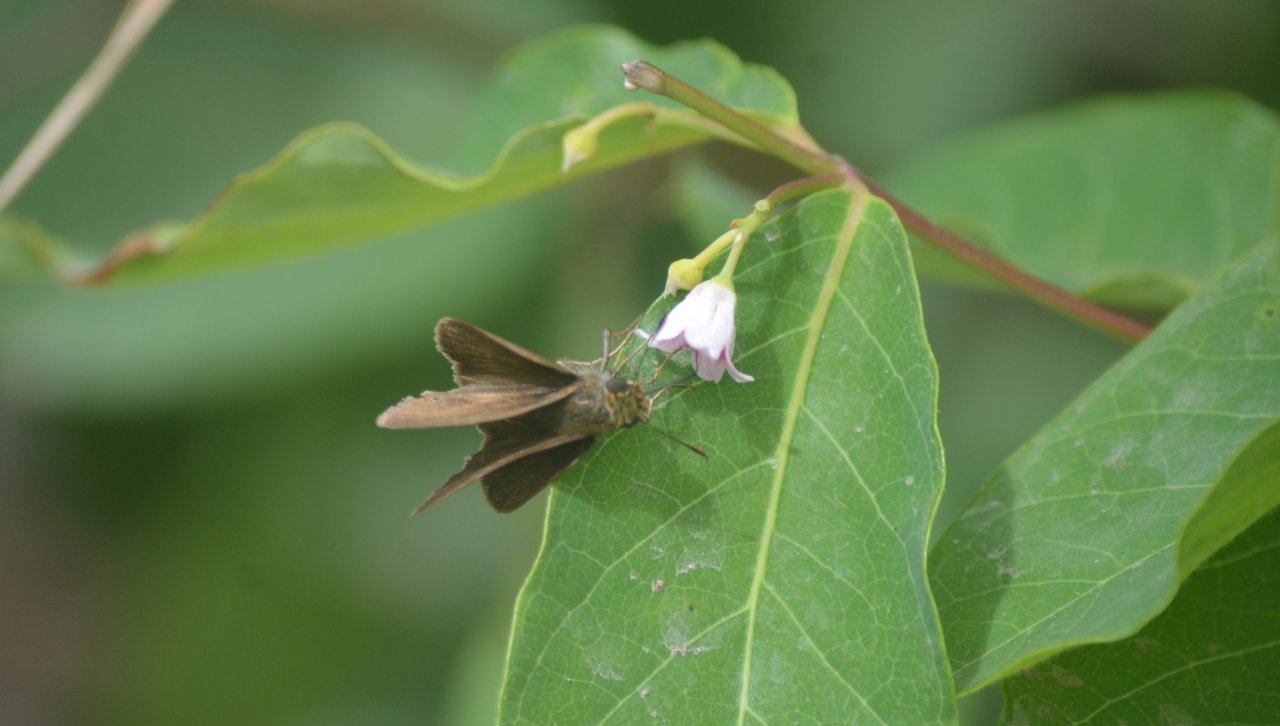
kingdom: Animalia
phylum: Arthropoda
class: Insecta
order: Lepidoptera
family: Hesperiidae
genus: Euphyes
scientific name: Euphyes vestris
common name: Dun Skipper
